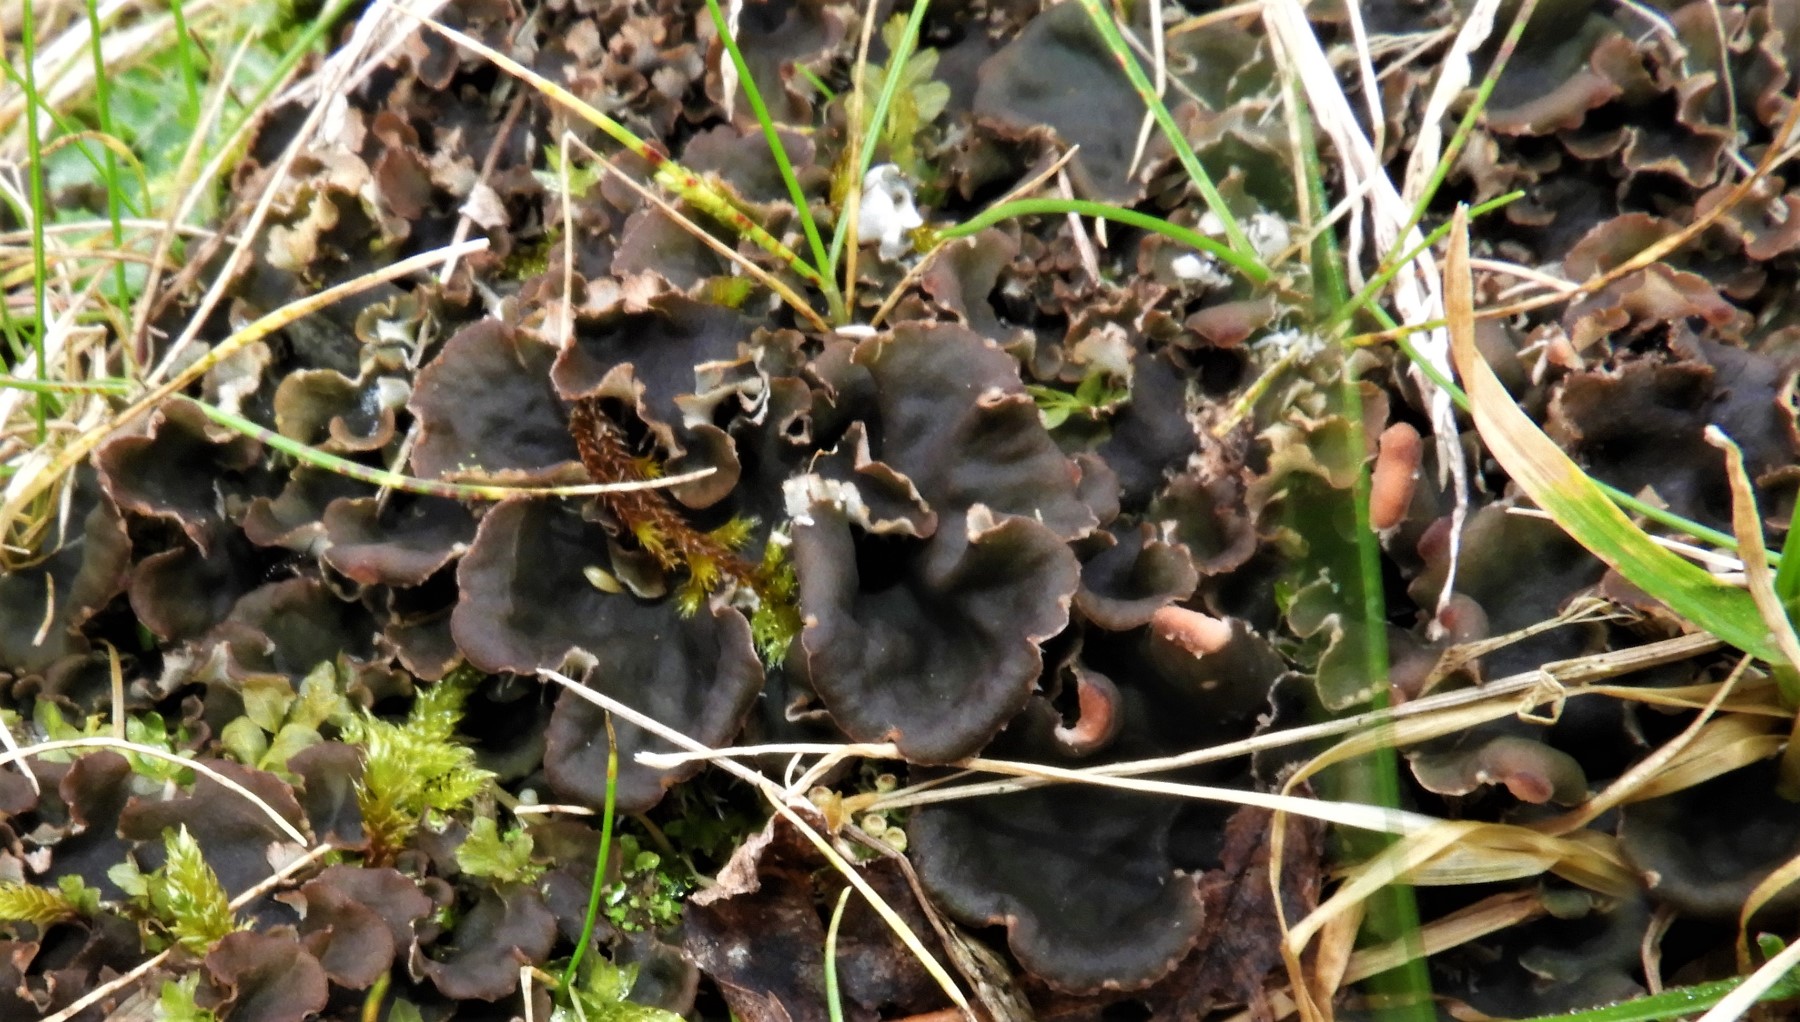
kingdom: Fungi
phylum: Ascomycota
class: Lecanoromycetes
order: Peltigerales
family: Peltigeraceae
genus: Peltigera
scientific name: Peltigera
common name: skjoldlav
